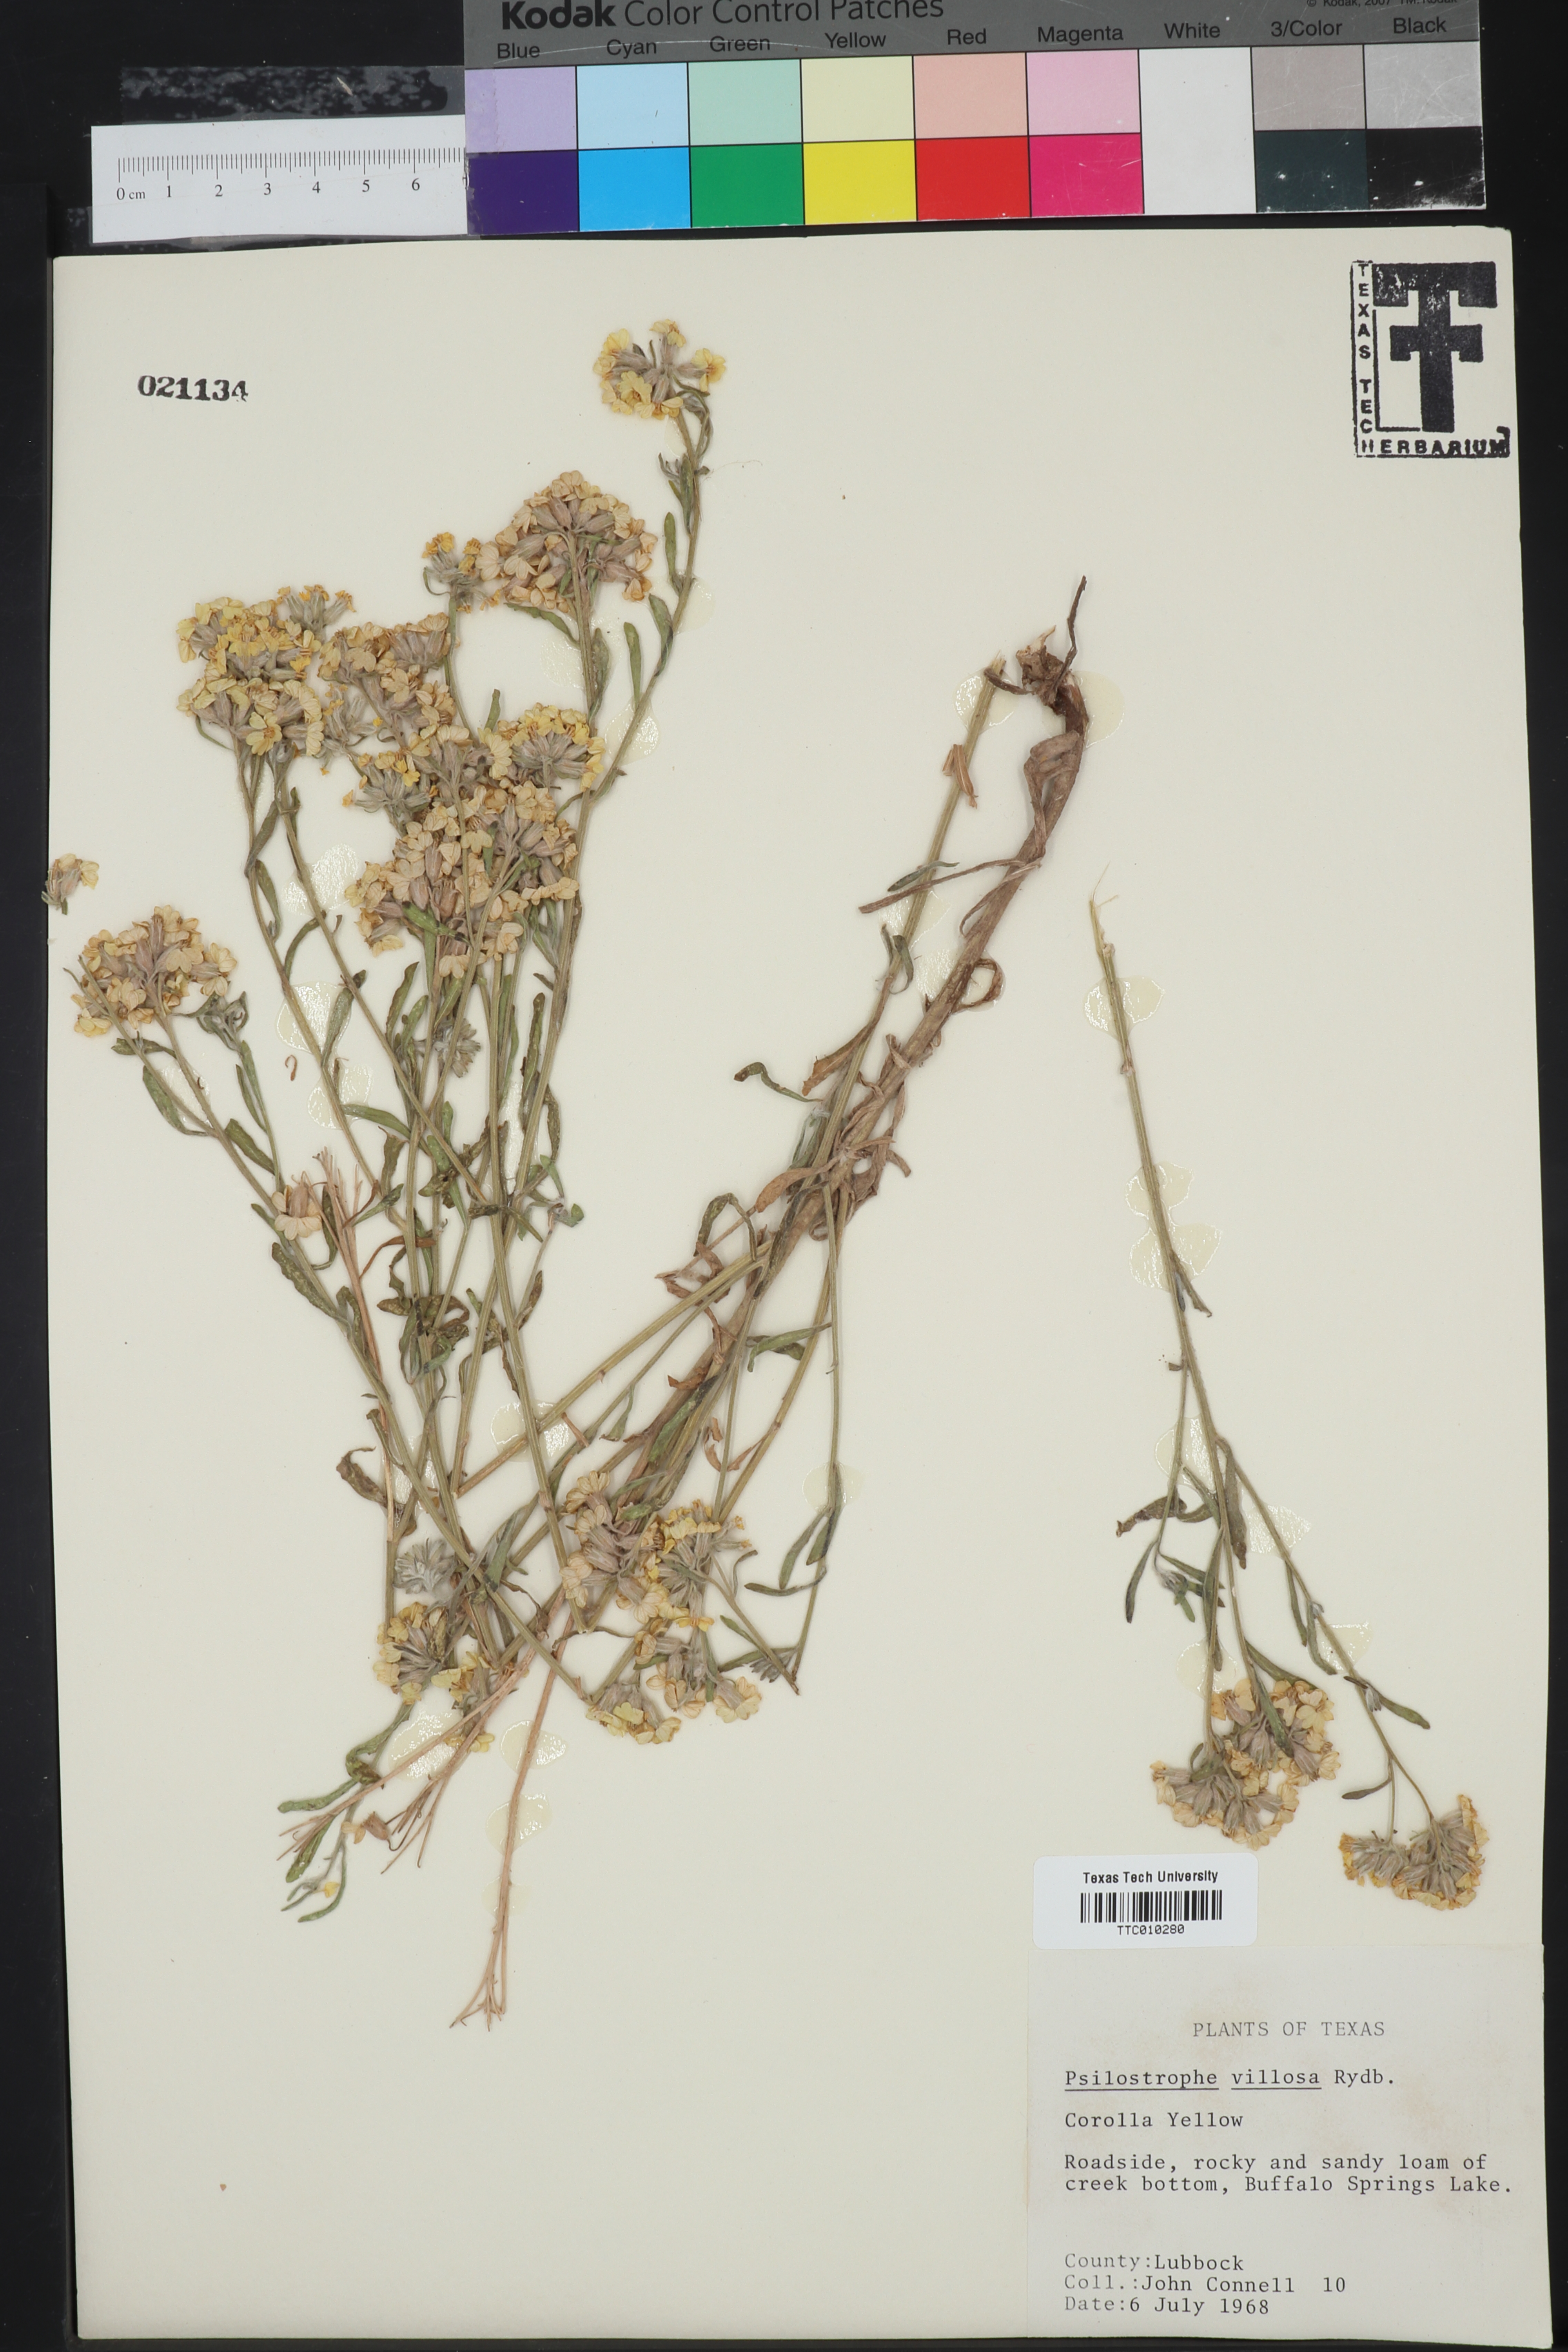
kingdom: Plantae
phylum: Tracheophyta
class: Magnoliopsida
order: Asterales
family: Asteraceae
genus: Psilostrophe
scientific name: Psilostrophe villosa
